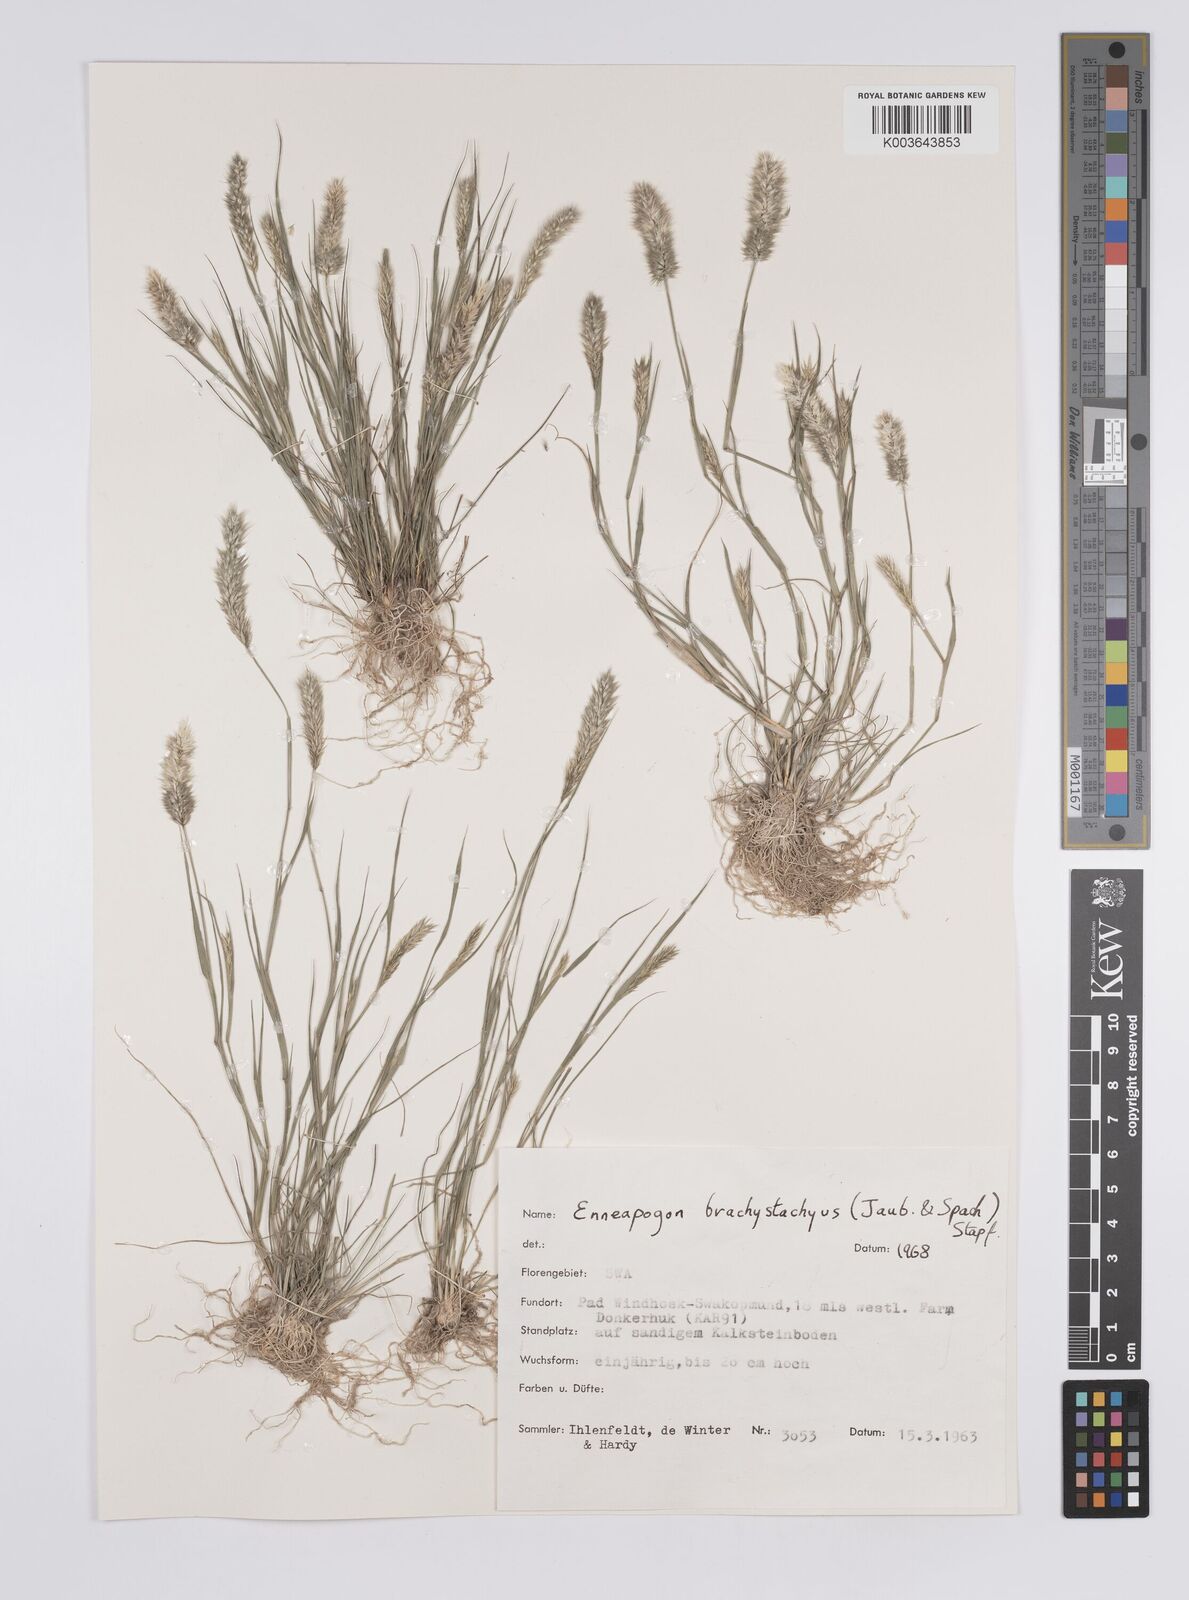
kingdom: Plantae
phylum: Tracheophyta
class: Liliopsida
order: Poales
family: Poaceae
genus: Enneapogon
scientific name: Enneapogon desvauxii
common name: Feather pappus grass
